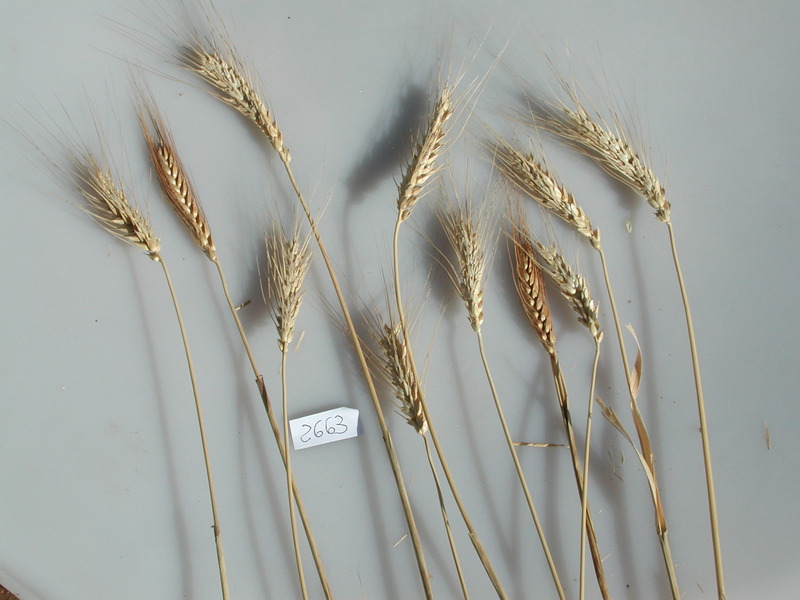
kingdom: Plantae
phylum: Tracheophyta
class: Liliopsida
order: Poales
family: Poaceae
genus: Triticum
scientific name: Triticum aestivum
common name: Wheat
